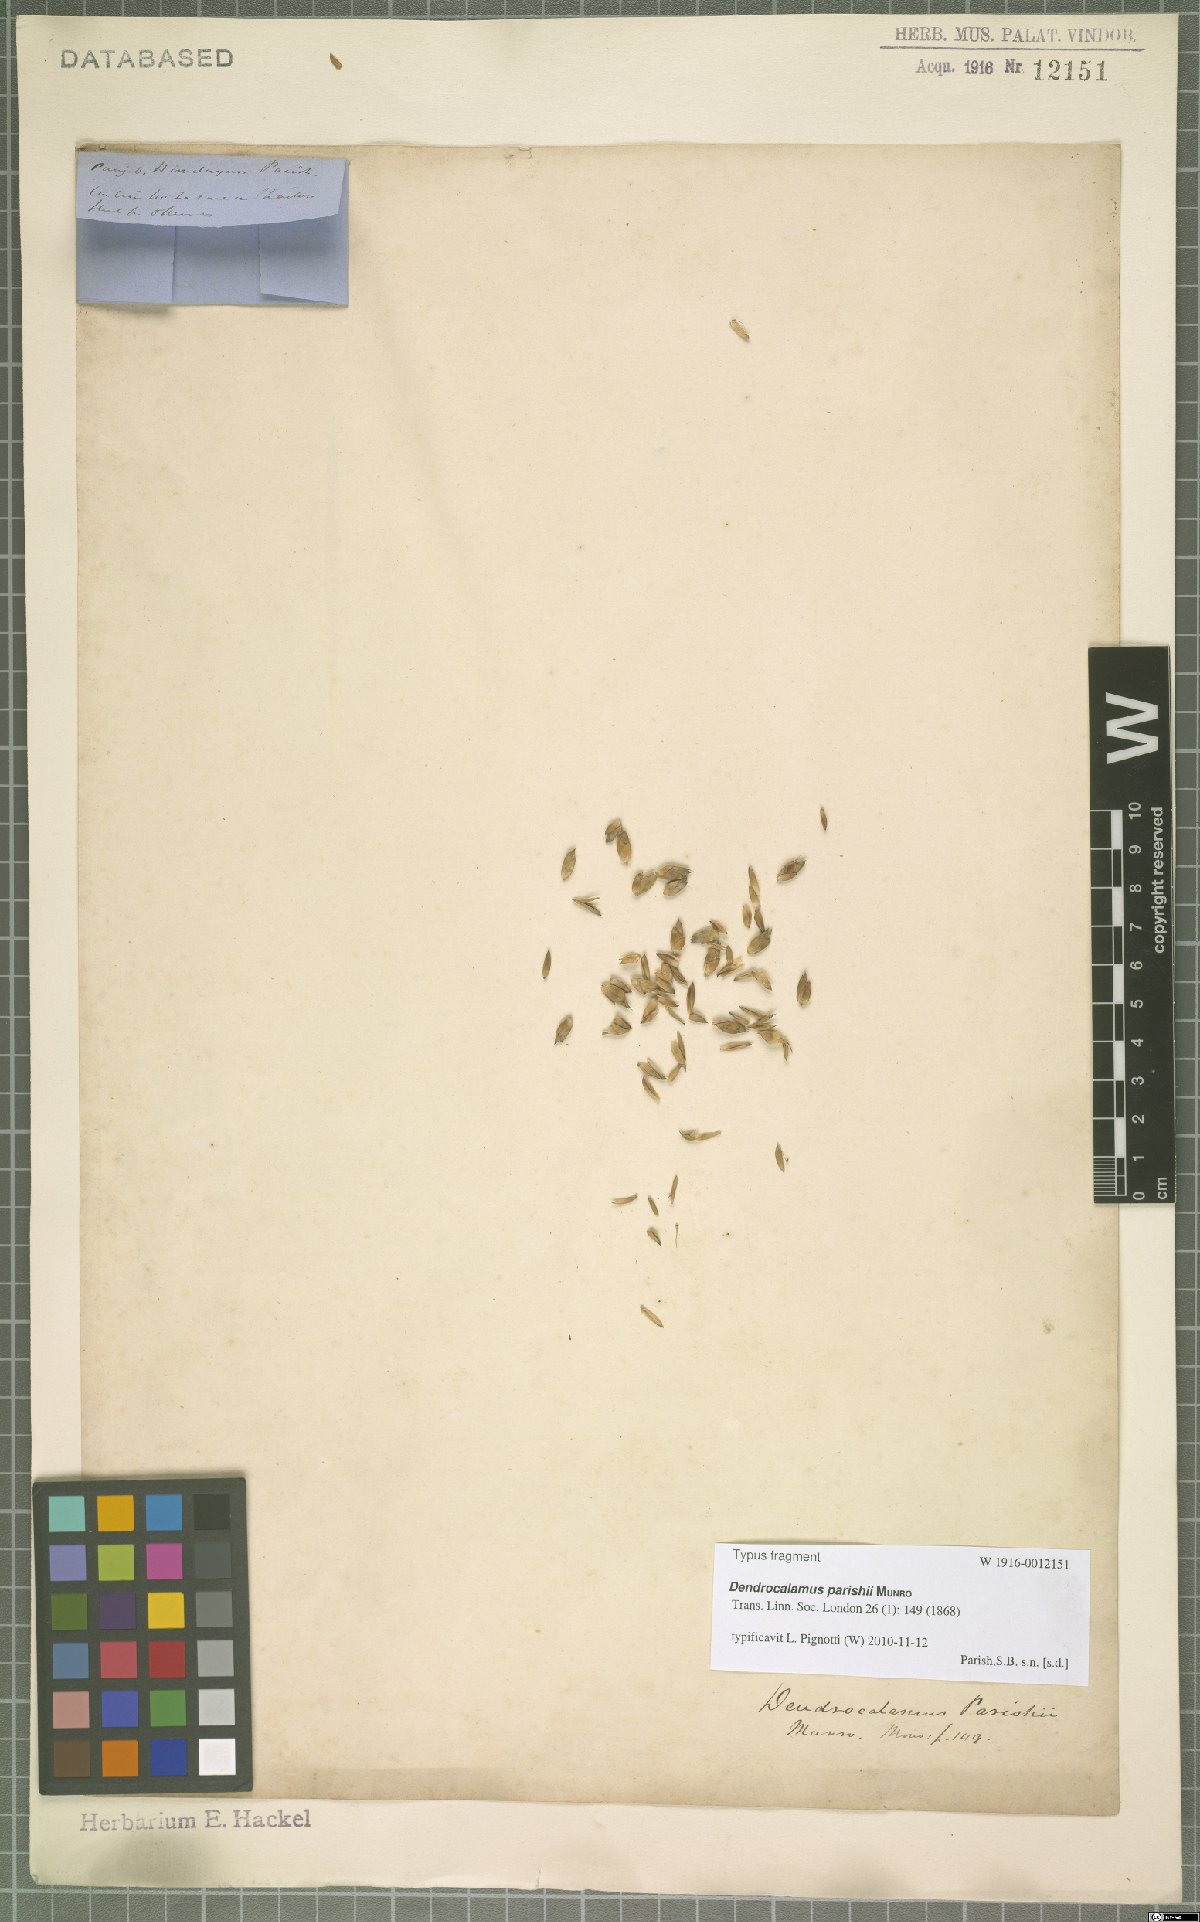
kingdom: Plantae
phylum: Tracheophyta
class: Liliopsida
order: Poales
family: Poaceae
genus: Dendrocalamus
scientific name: Dendrocalamus parishii
